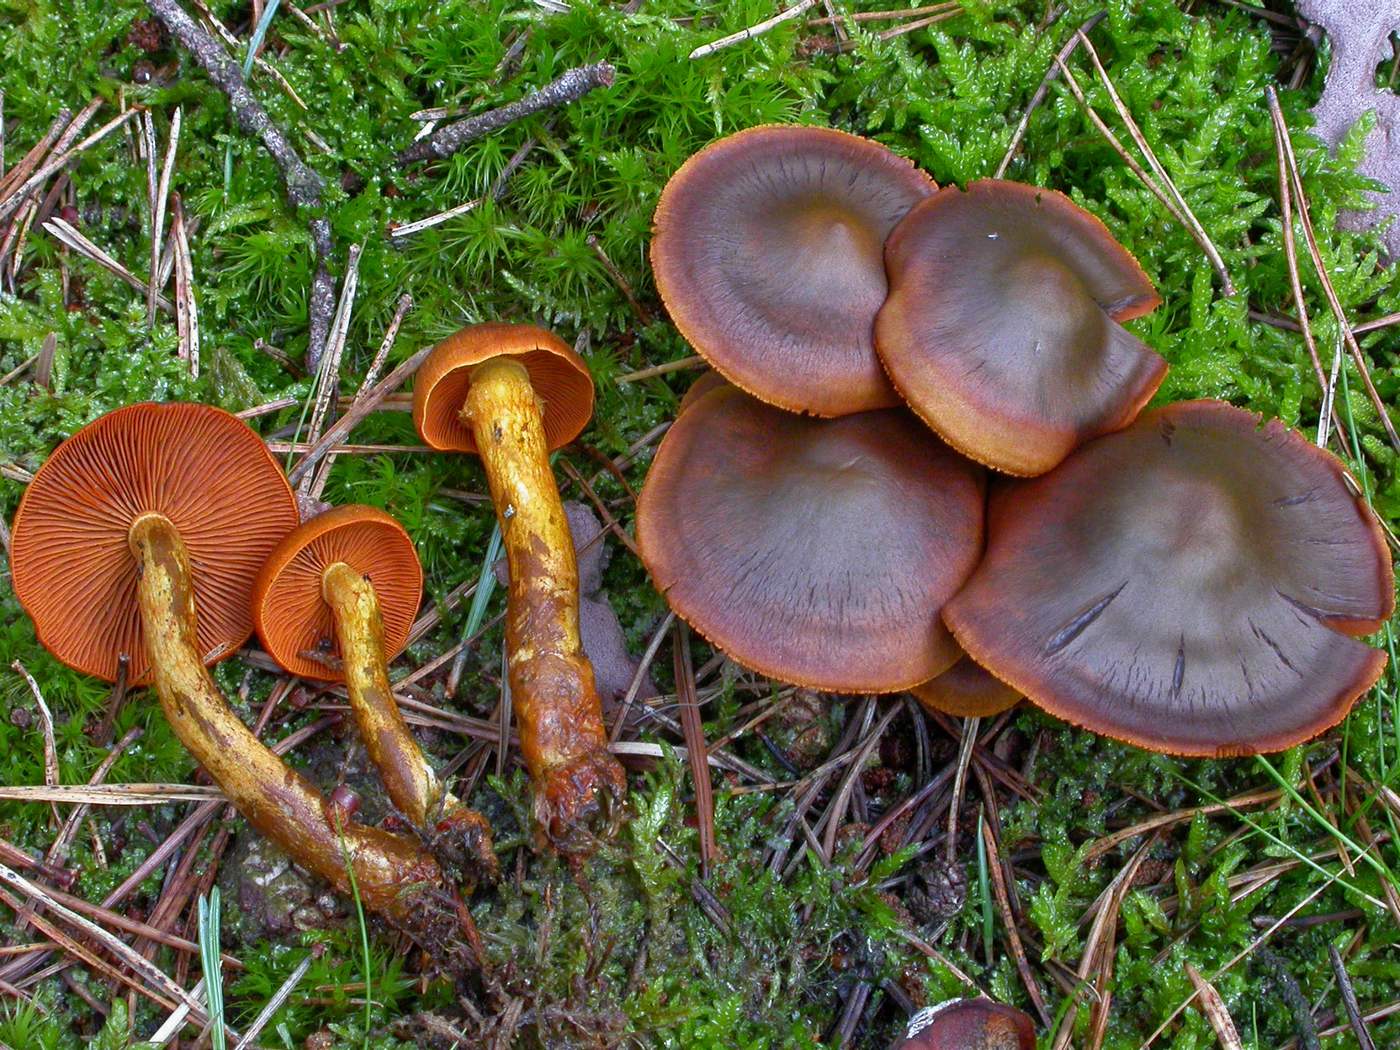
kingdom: Fungi
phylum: Basidiomycota
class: Agaricomycetes
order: Agaricales
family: Cortinariaceae
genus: Cortinarius
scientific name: Cortinarius malicorius
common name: grønkødet slørhat
